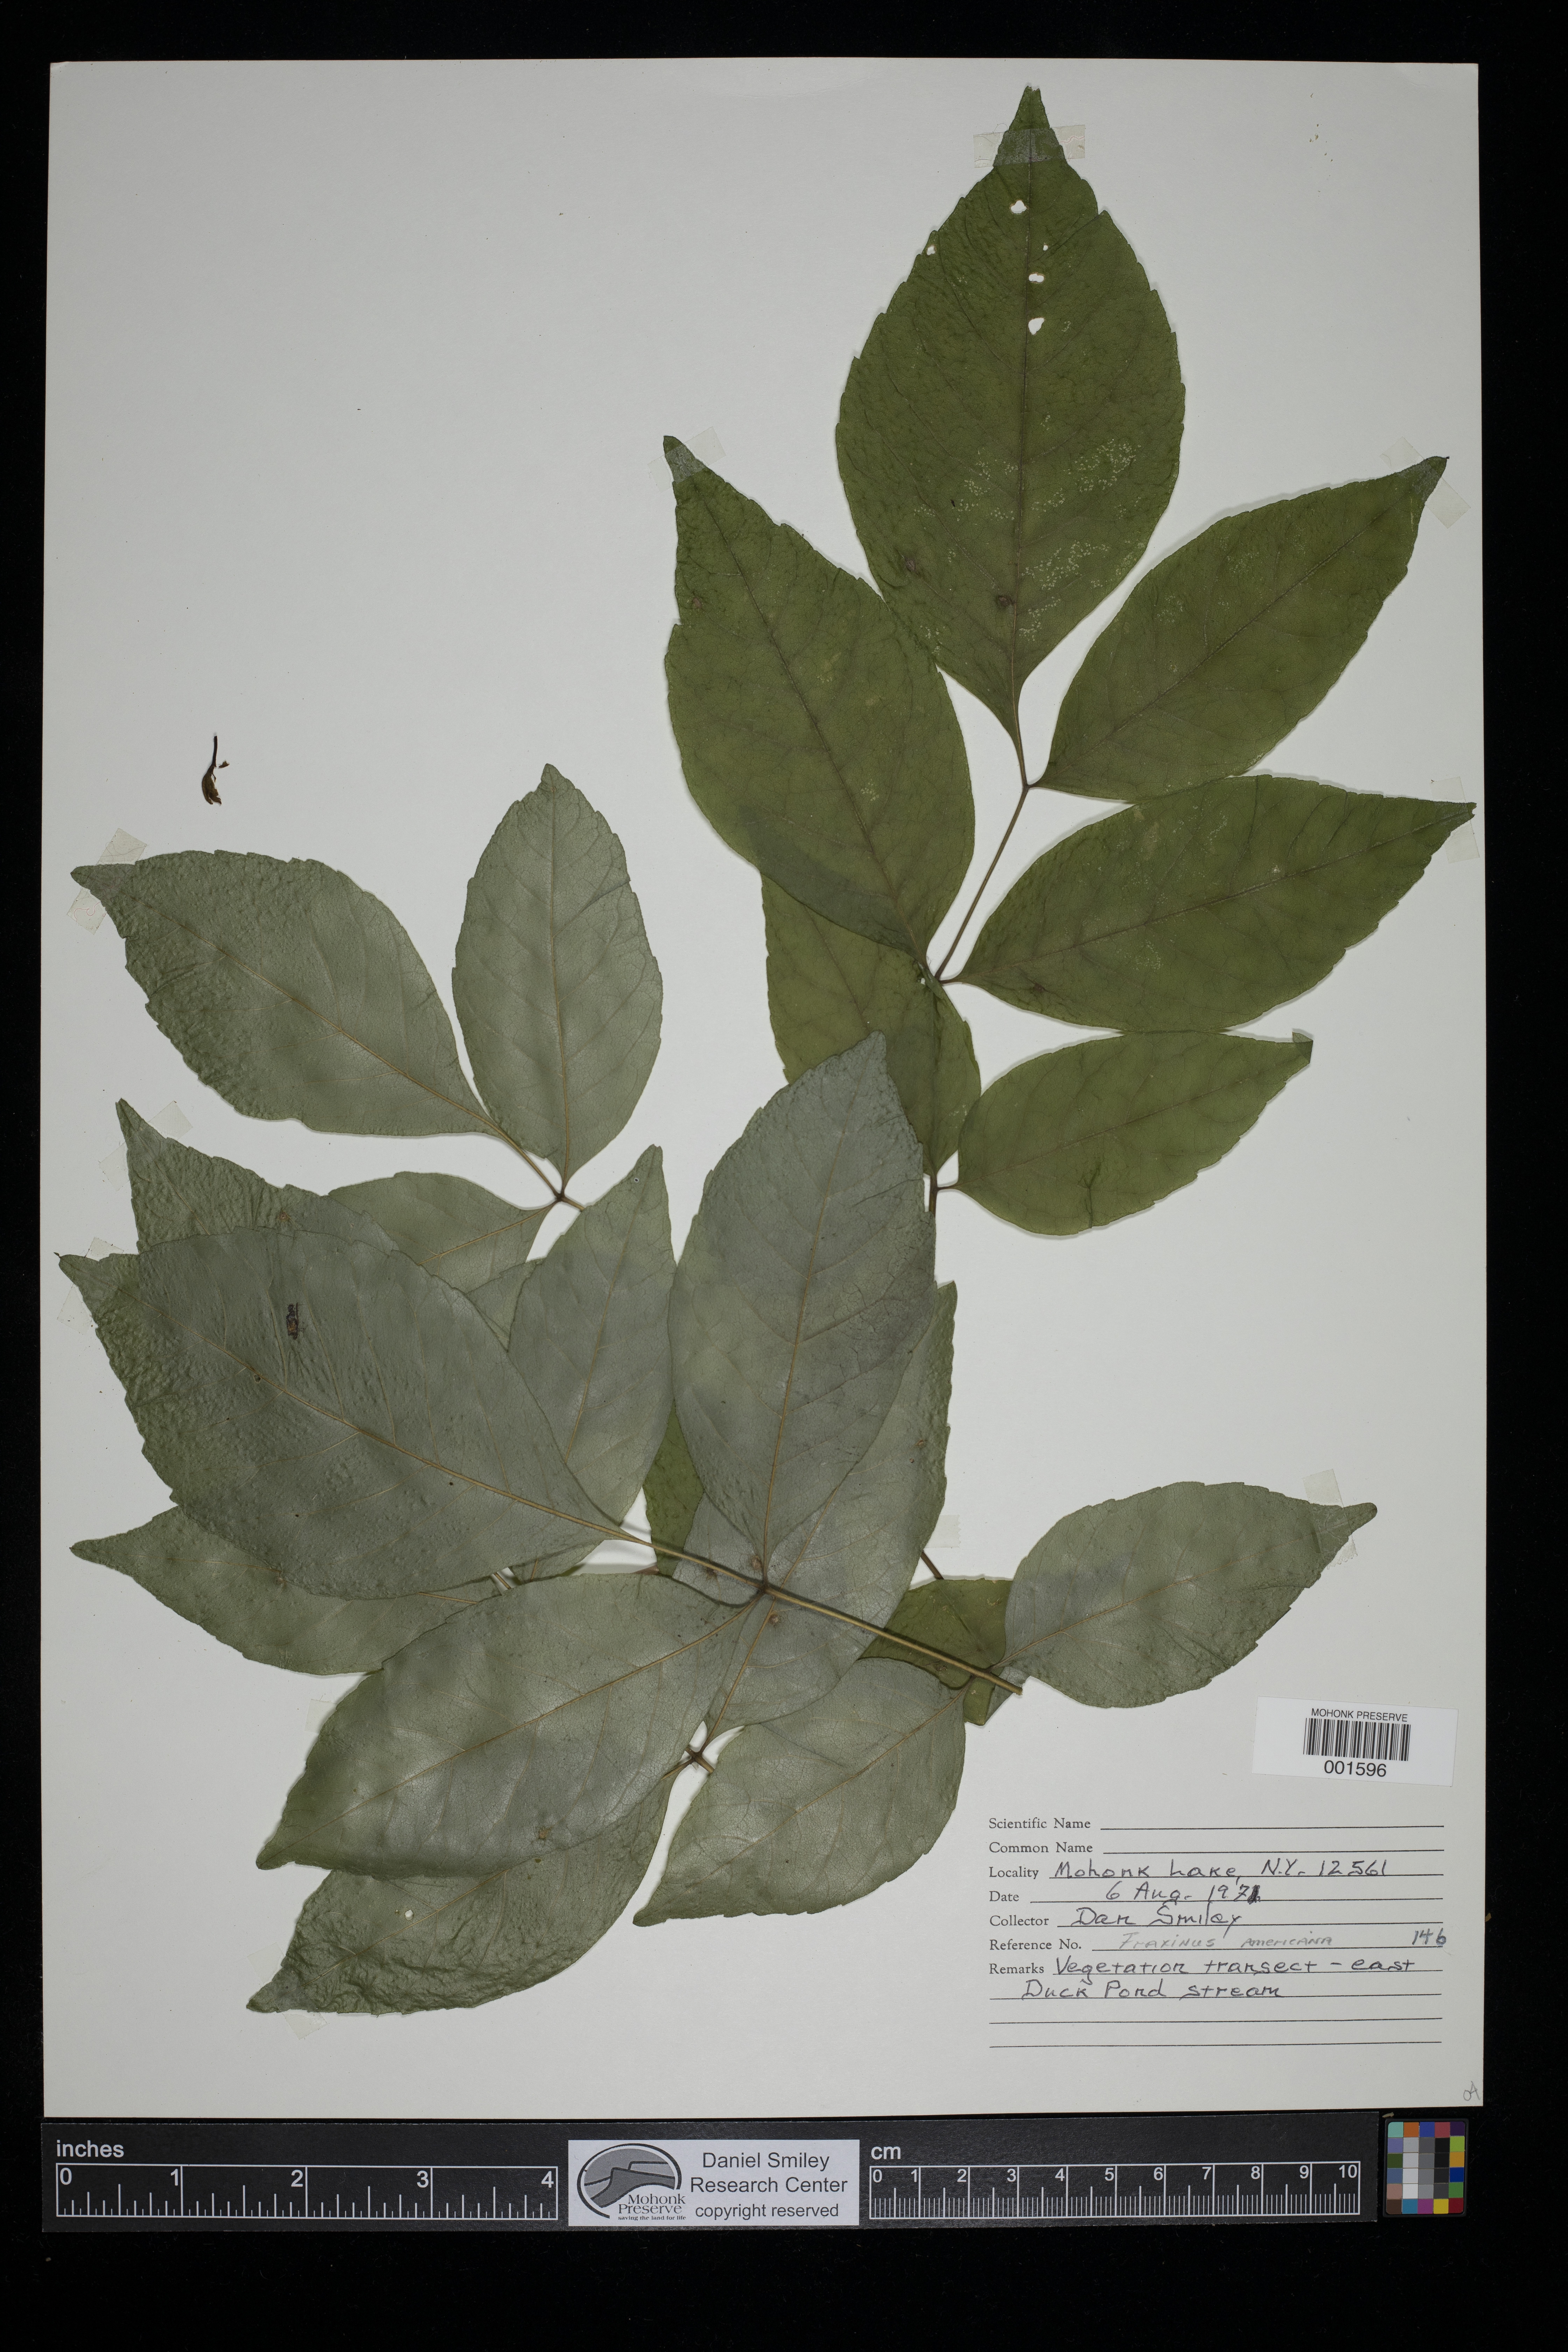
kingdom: Plantae
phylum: Tracheophyta
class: Magnoliopsida
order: Lamiales
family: Oleaceae
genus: Fraxinus
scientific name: Fraxinus americana
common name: White ash
